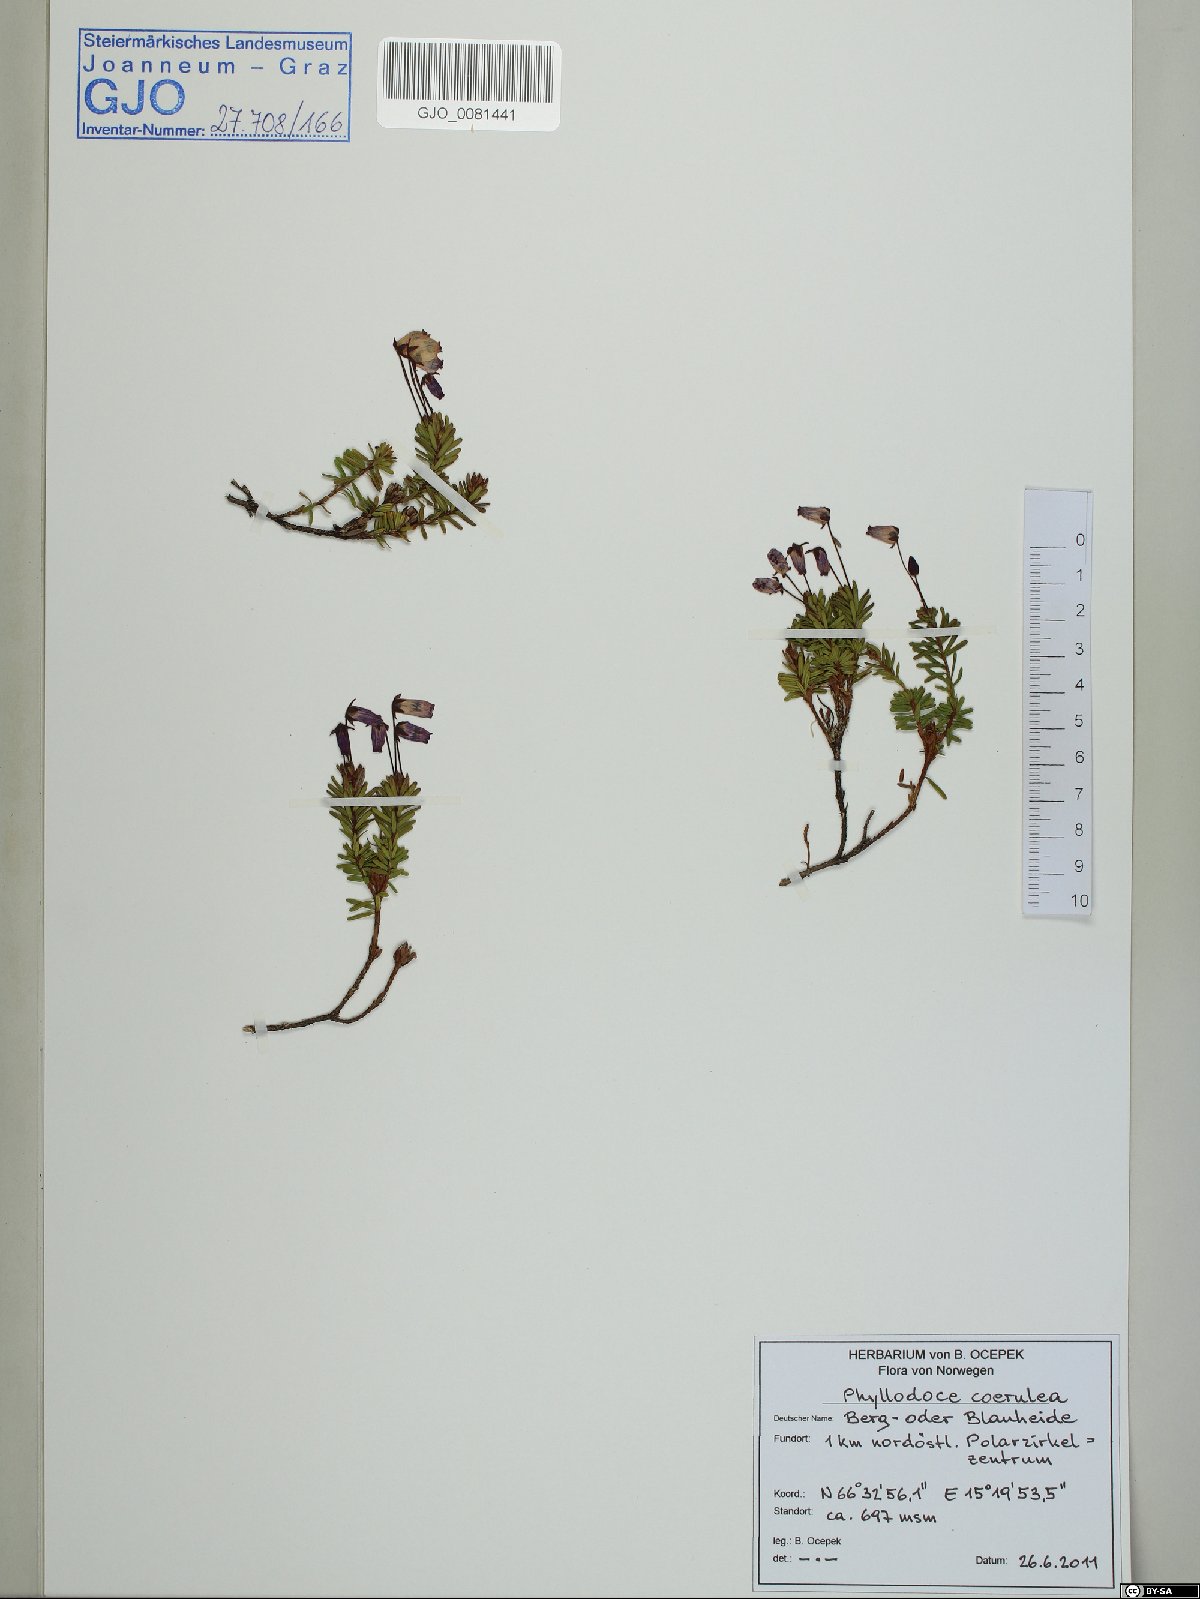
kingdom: Plantae
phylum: Tracheophyta
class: Magnoliopsida
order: Ericales
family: Ericaceae
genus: Phyllodoce
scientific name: Phyllodoce caerulea
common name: Blue heath
